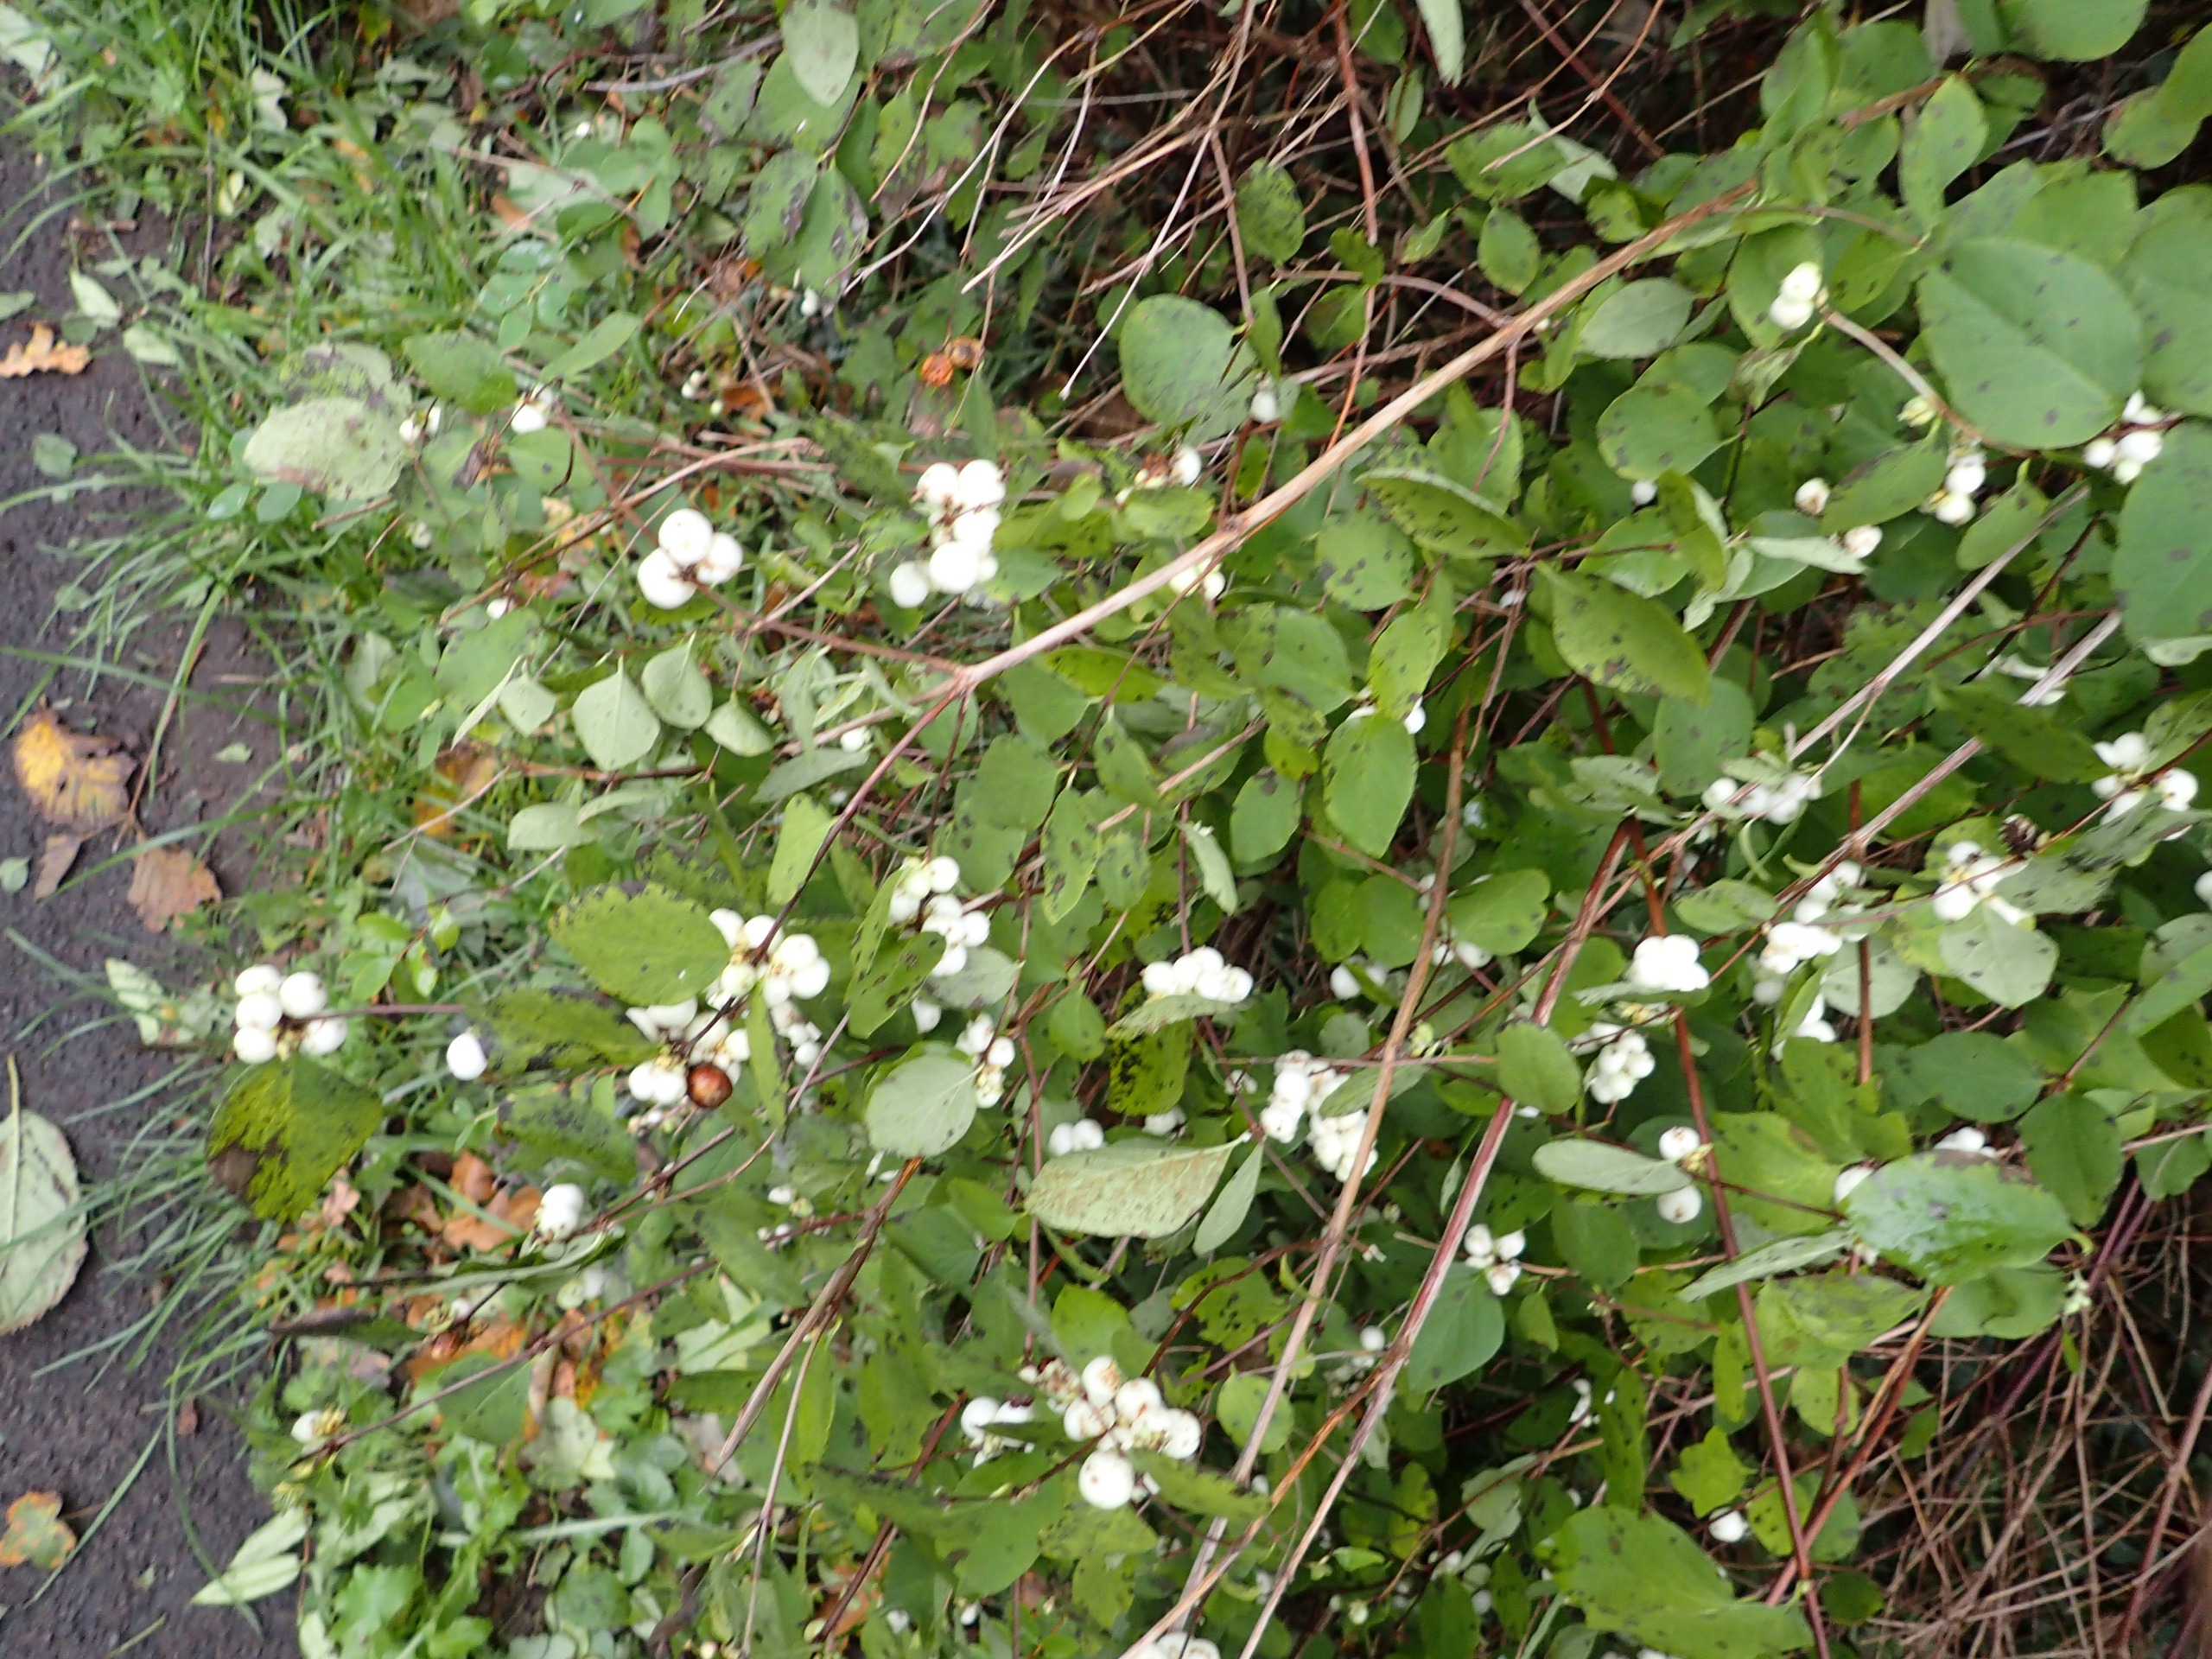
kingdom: Plantae
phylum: Tracheophyta
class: Magnoliopsida
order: Dipsacales
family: Caprifoliaceae
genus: Symphoricarpos
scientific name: Symphoricarpos albus
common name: Almindelig snebær
